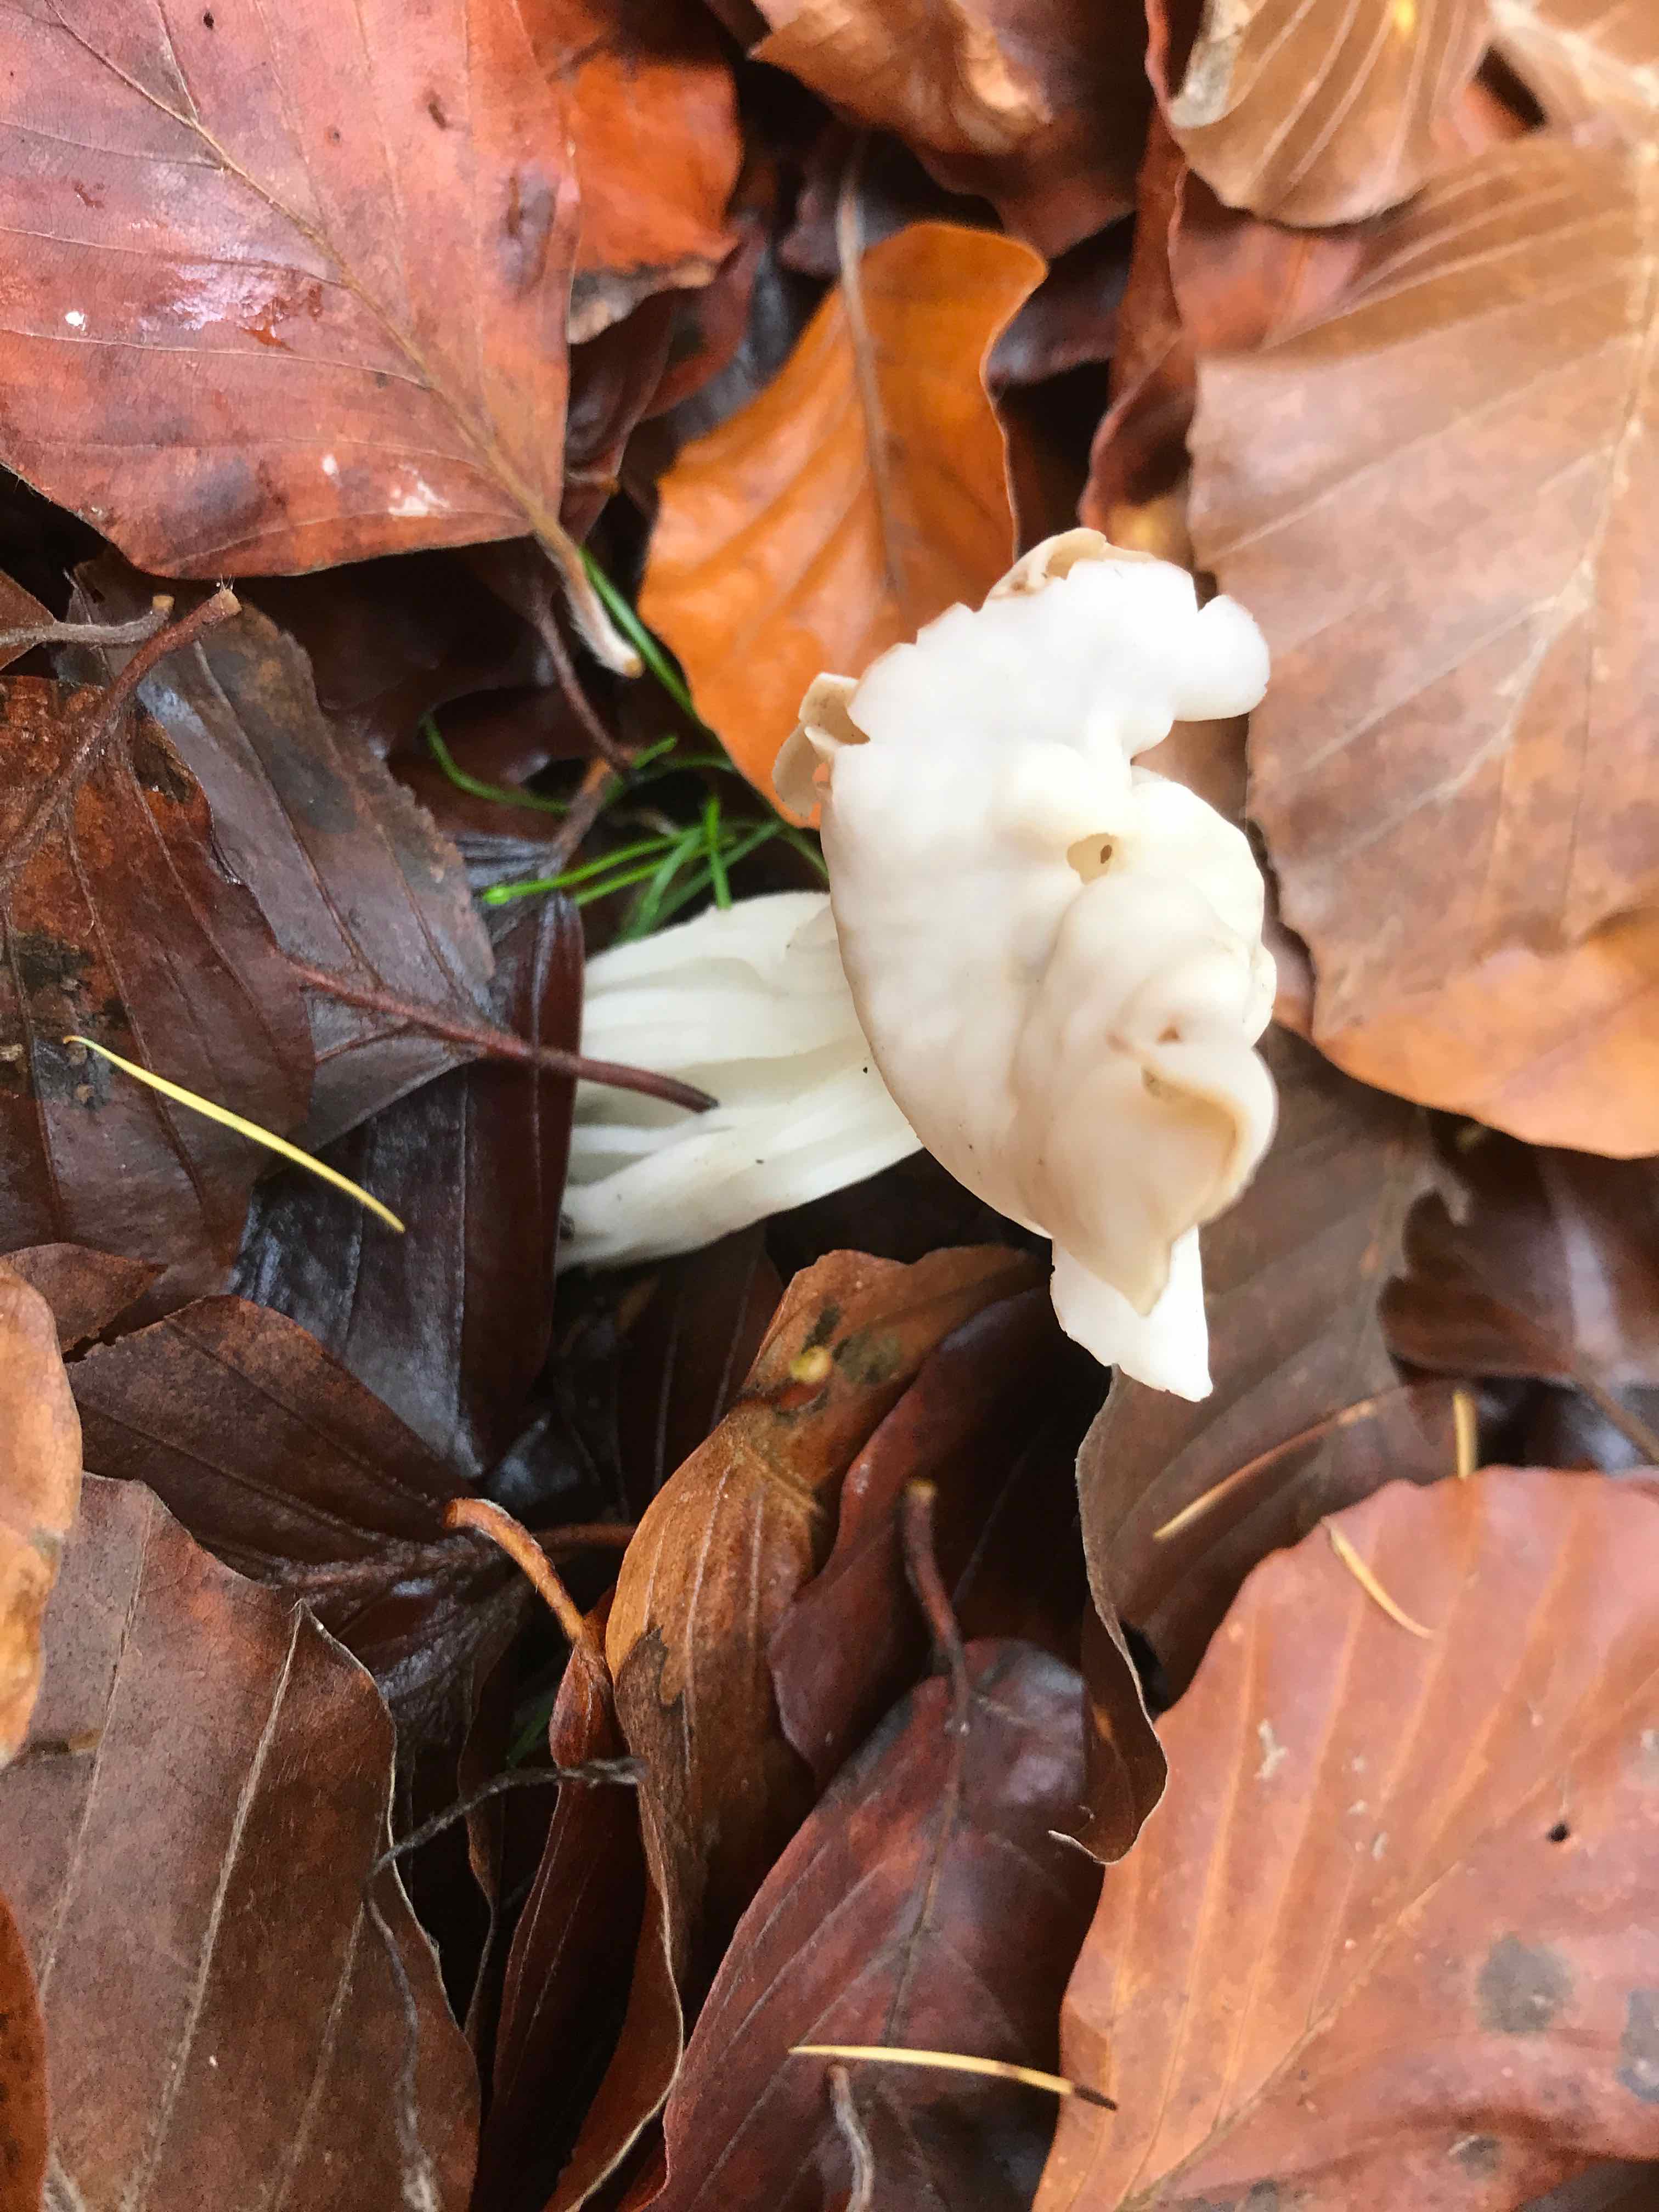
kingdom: Fungi
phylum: Ascomycota
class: Pezizomycetes
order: Pezizales
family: Helvellaceae
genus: Helvella
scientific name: Helvella crispa
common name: kruset foldhat
